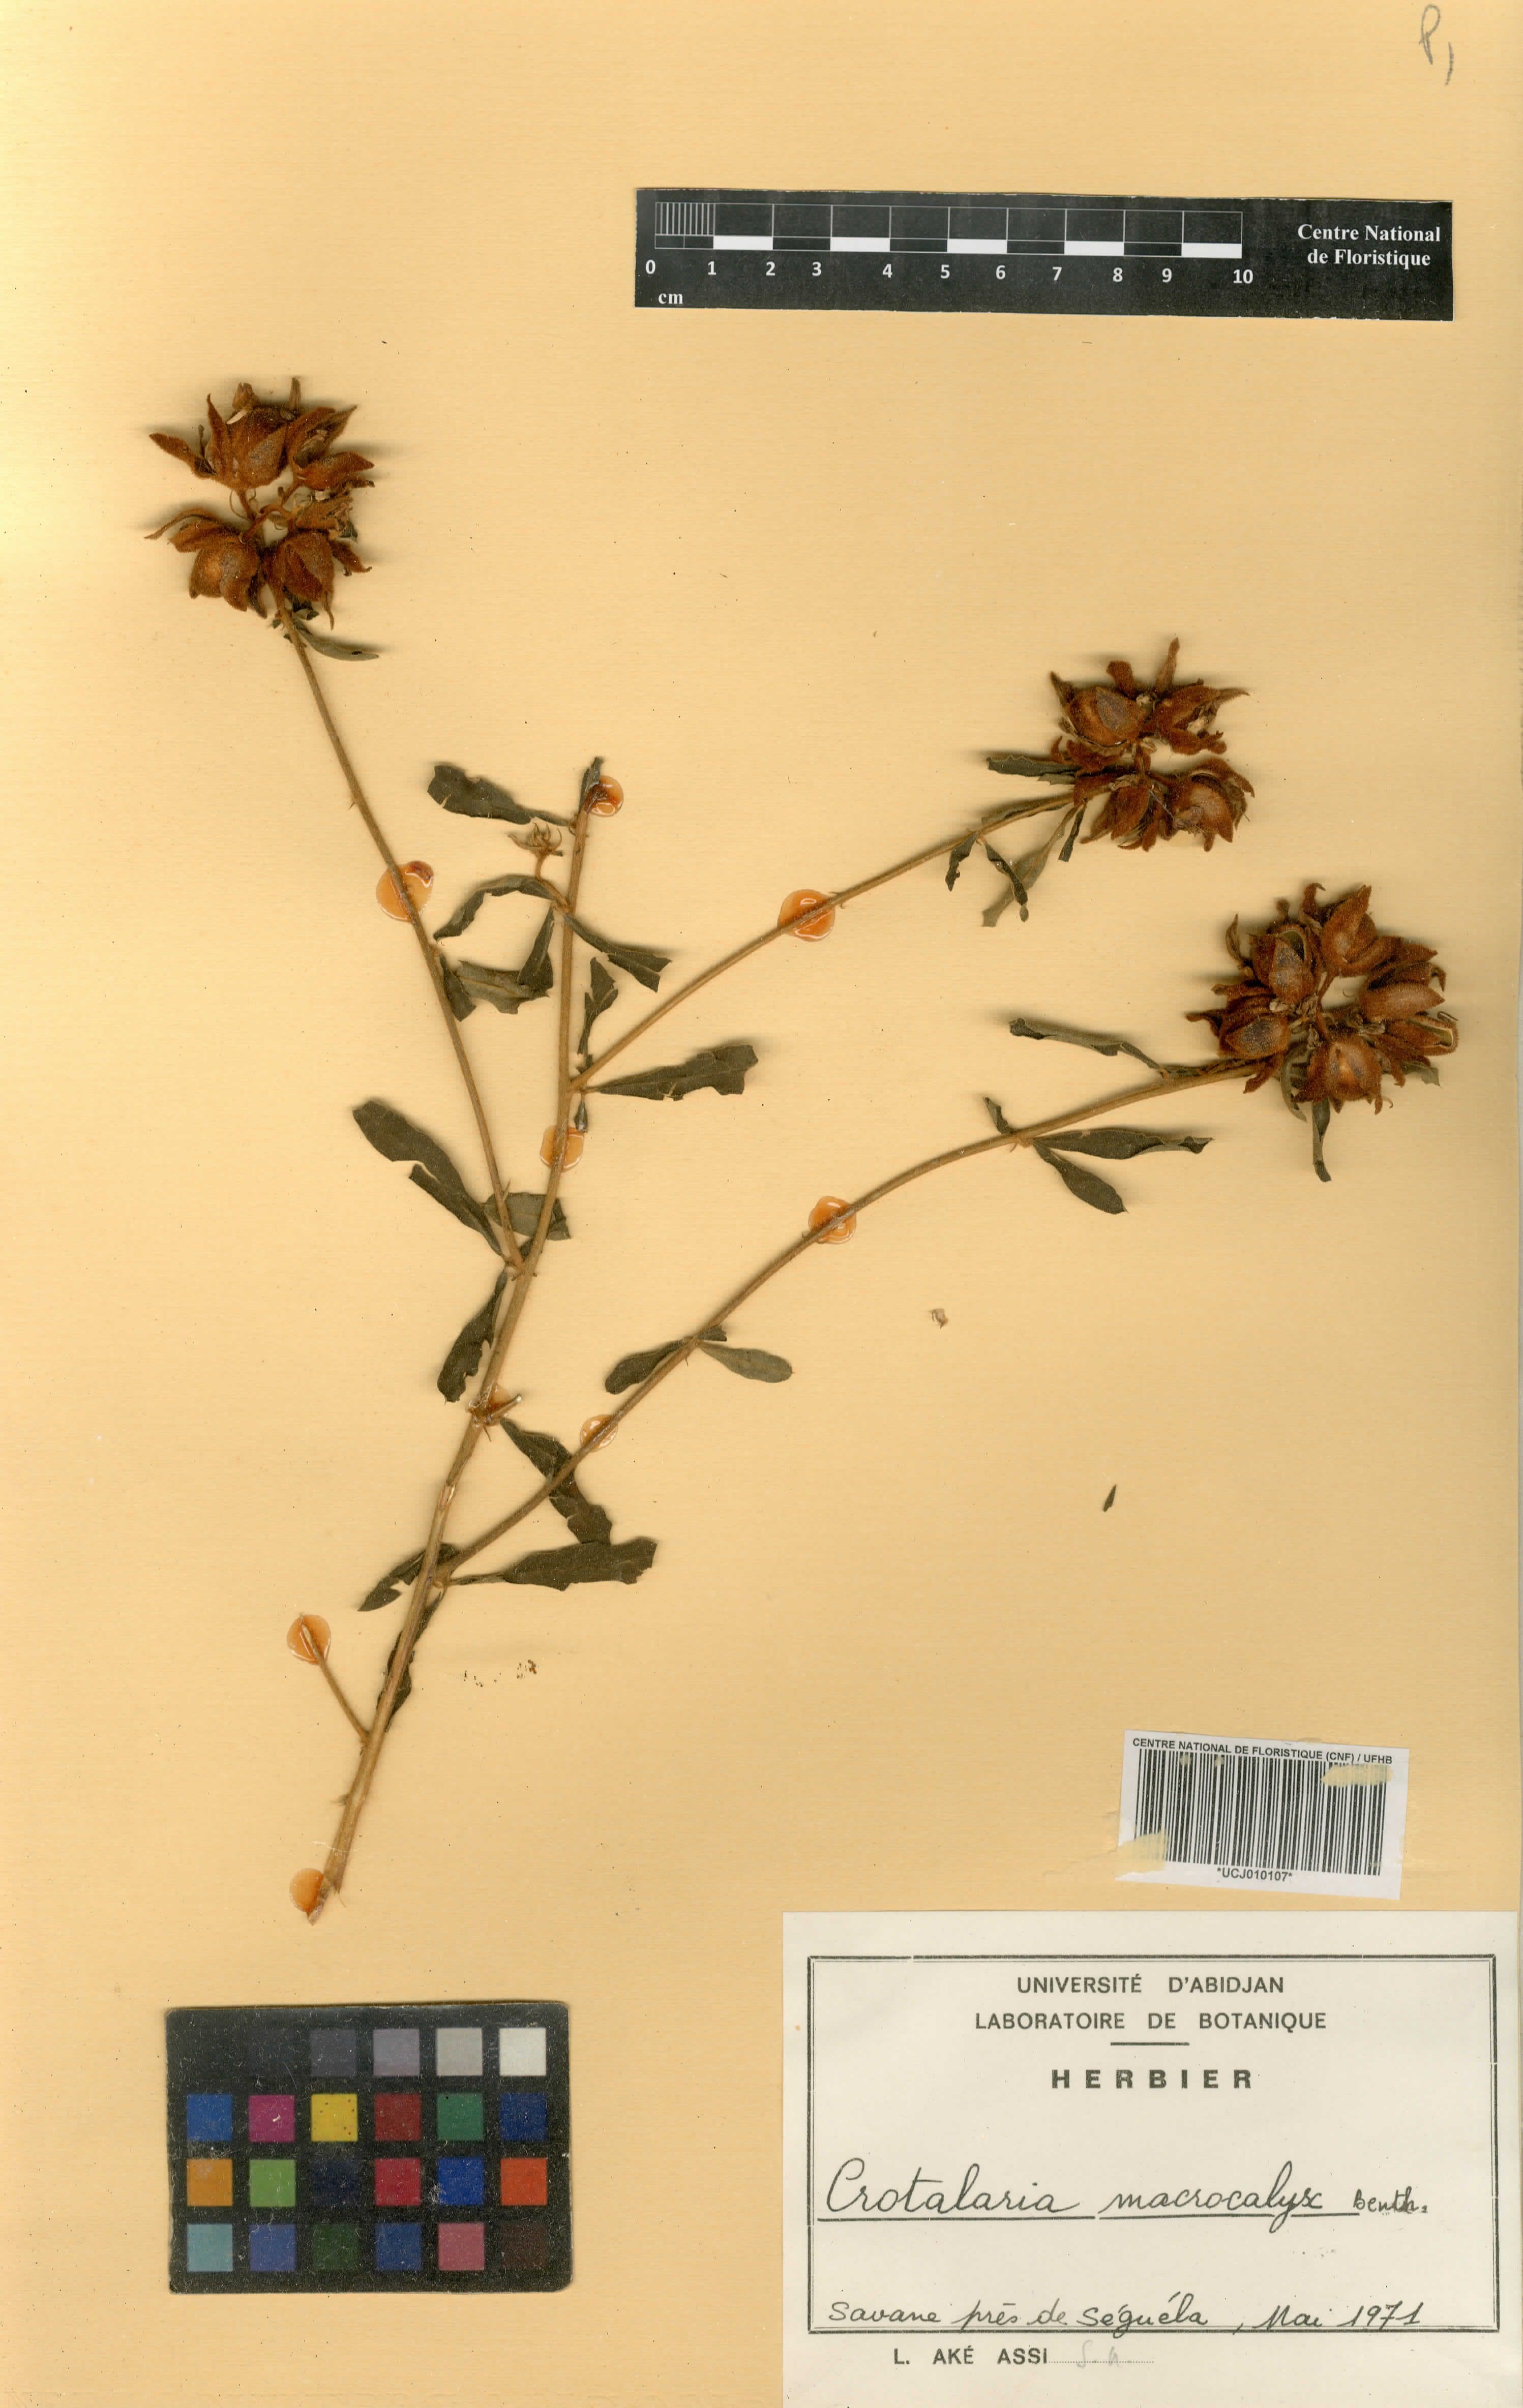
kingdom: Plantae
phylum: Tracheophyta
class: Magnoliopsida
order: Fabales
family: Fabaceae
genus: Crotalaria
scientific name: Crotalaria macrocalyx
